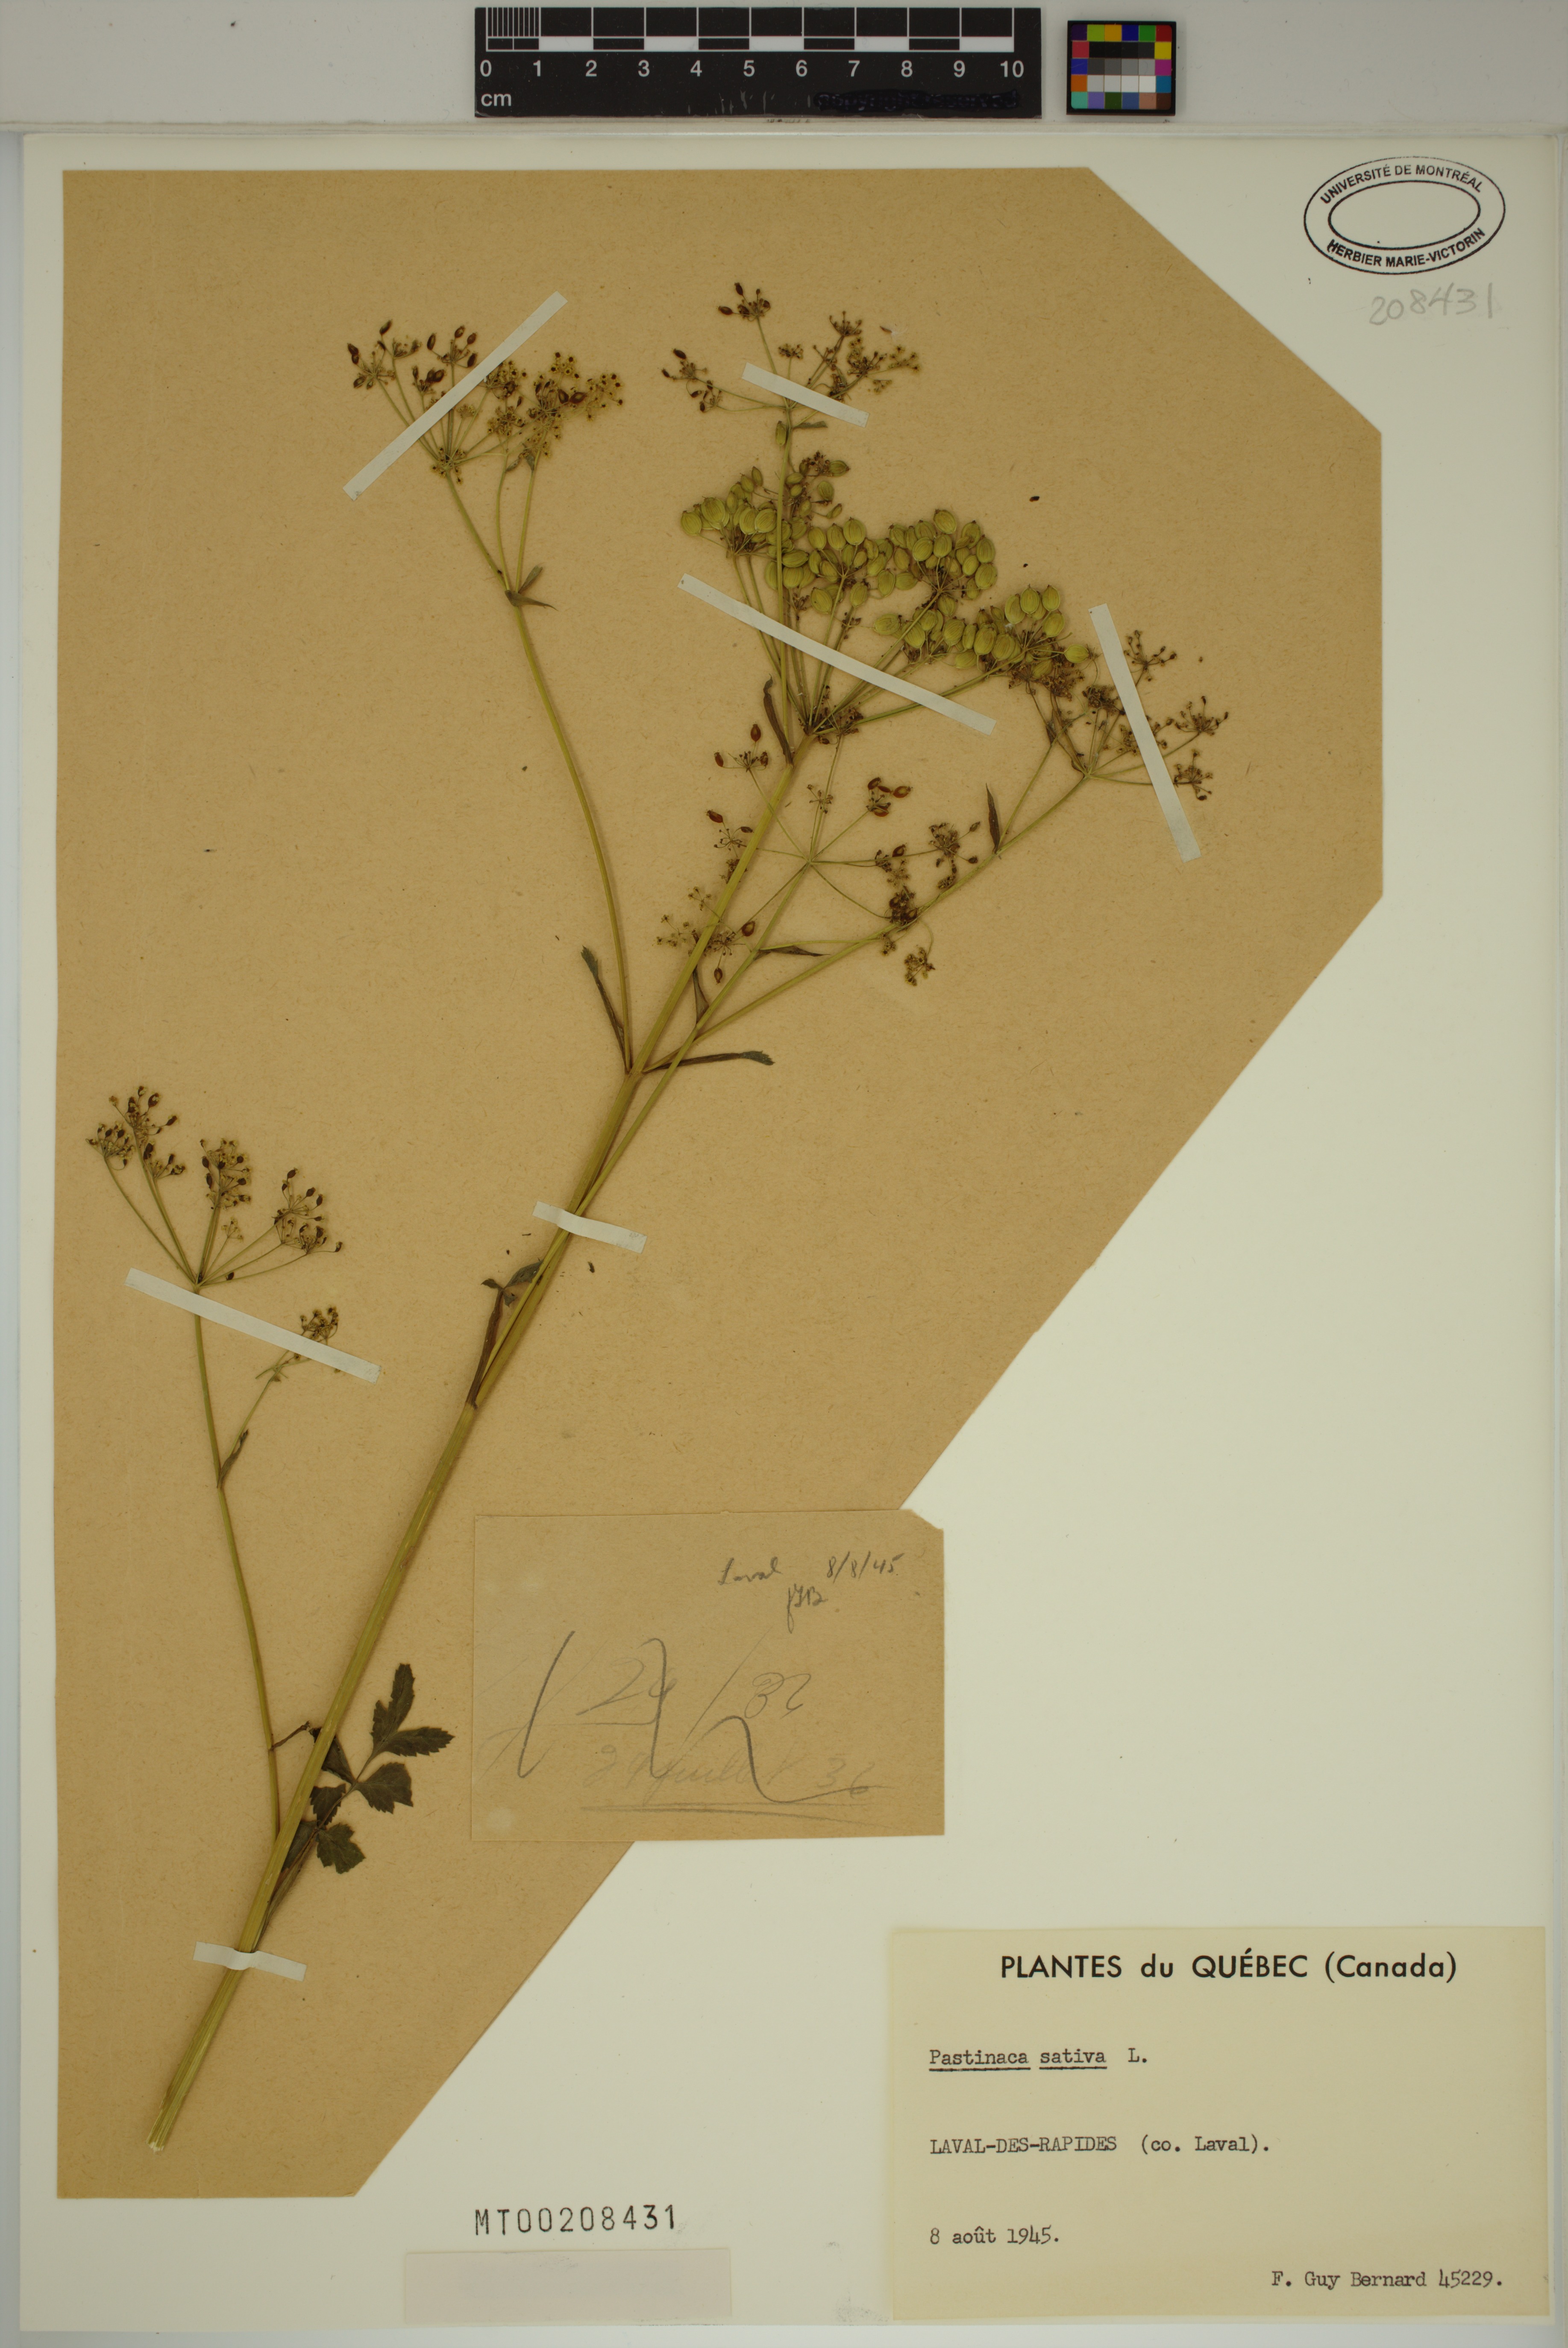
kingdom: Plantae
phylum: Tracheophyta
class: Magnoliopsida
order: Apiales
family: Apiaceae
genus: Pastinaca
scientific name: Pastinaca sativa
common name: Wild parsnip
